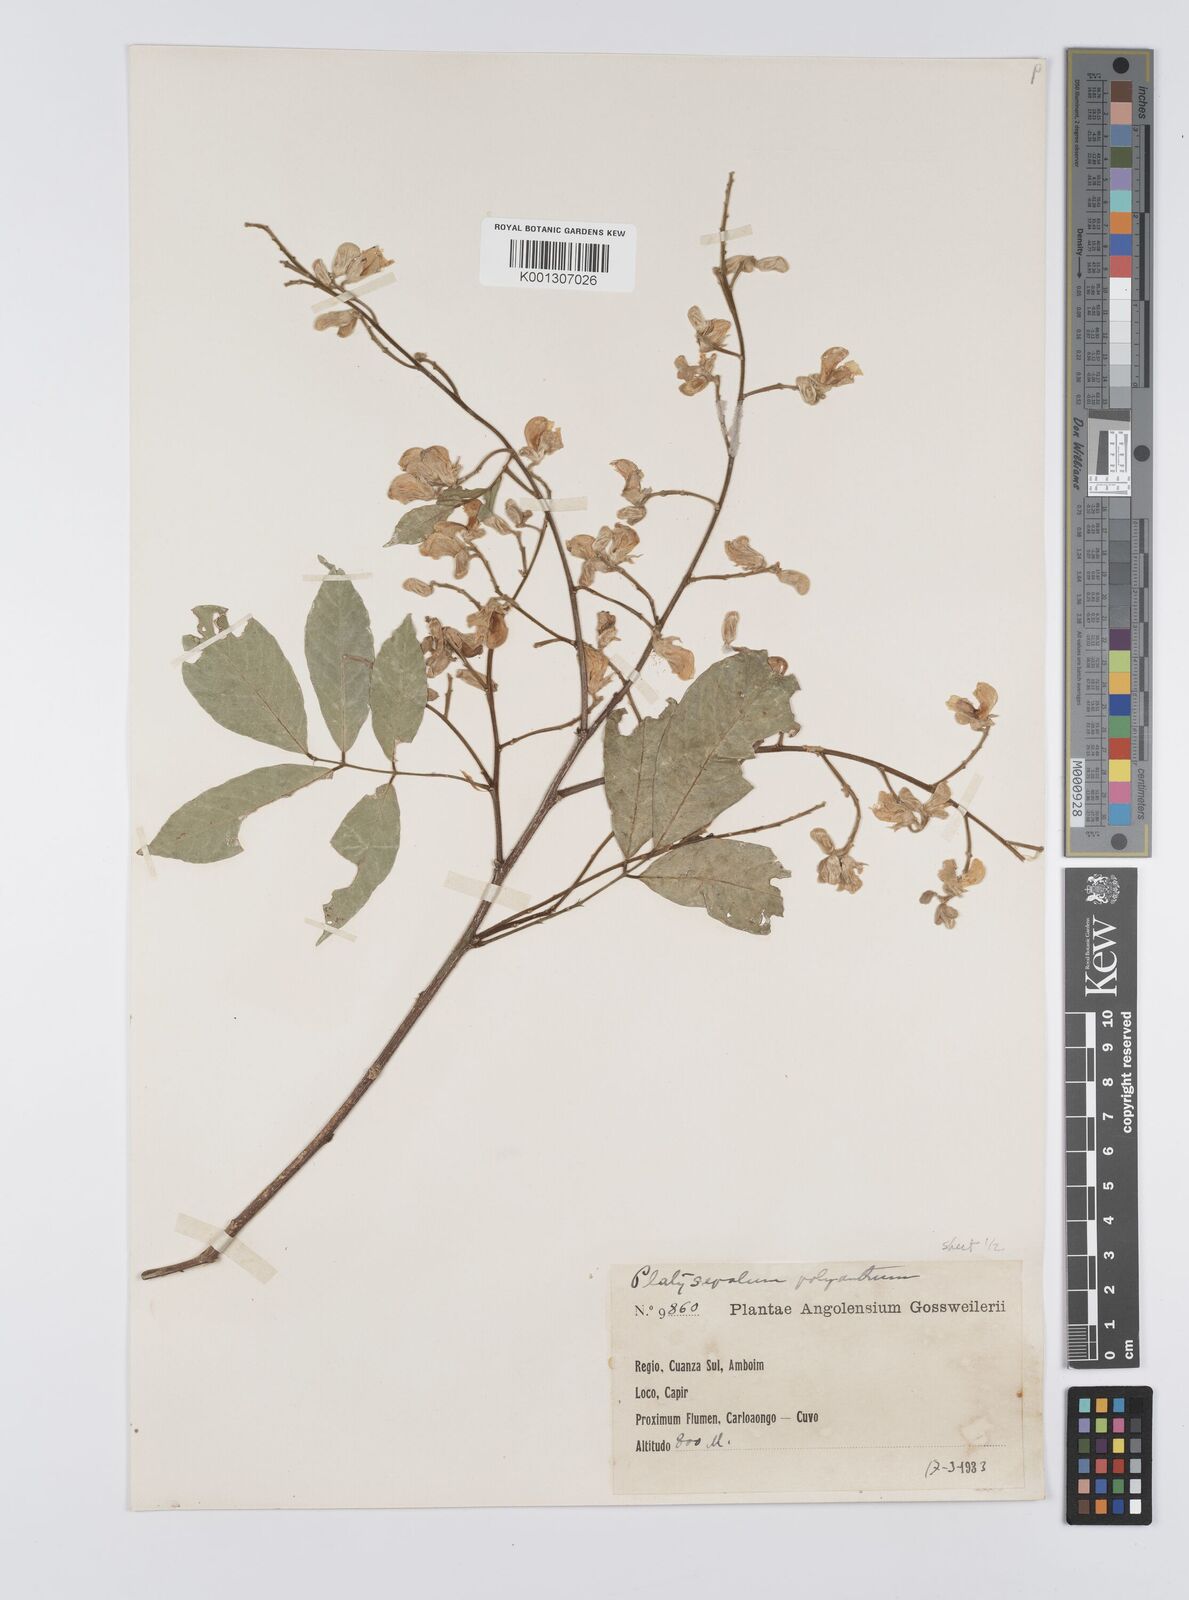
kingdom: Plantae
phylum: Tracheophyta
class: Magnoliopsida
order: Fabales
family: Fabaceae
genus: Platysepalum
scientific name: Platysepalum violaceum
